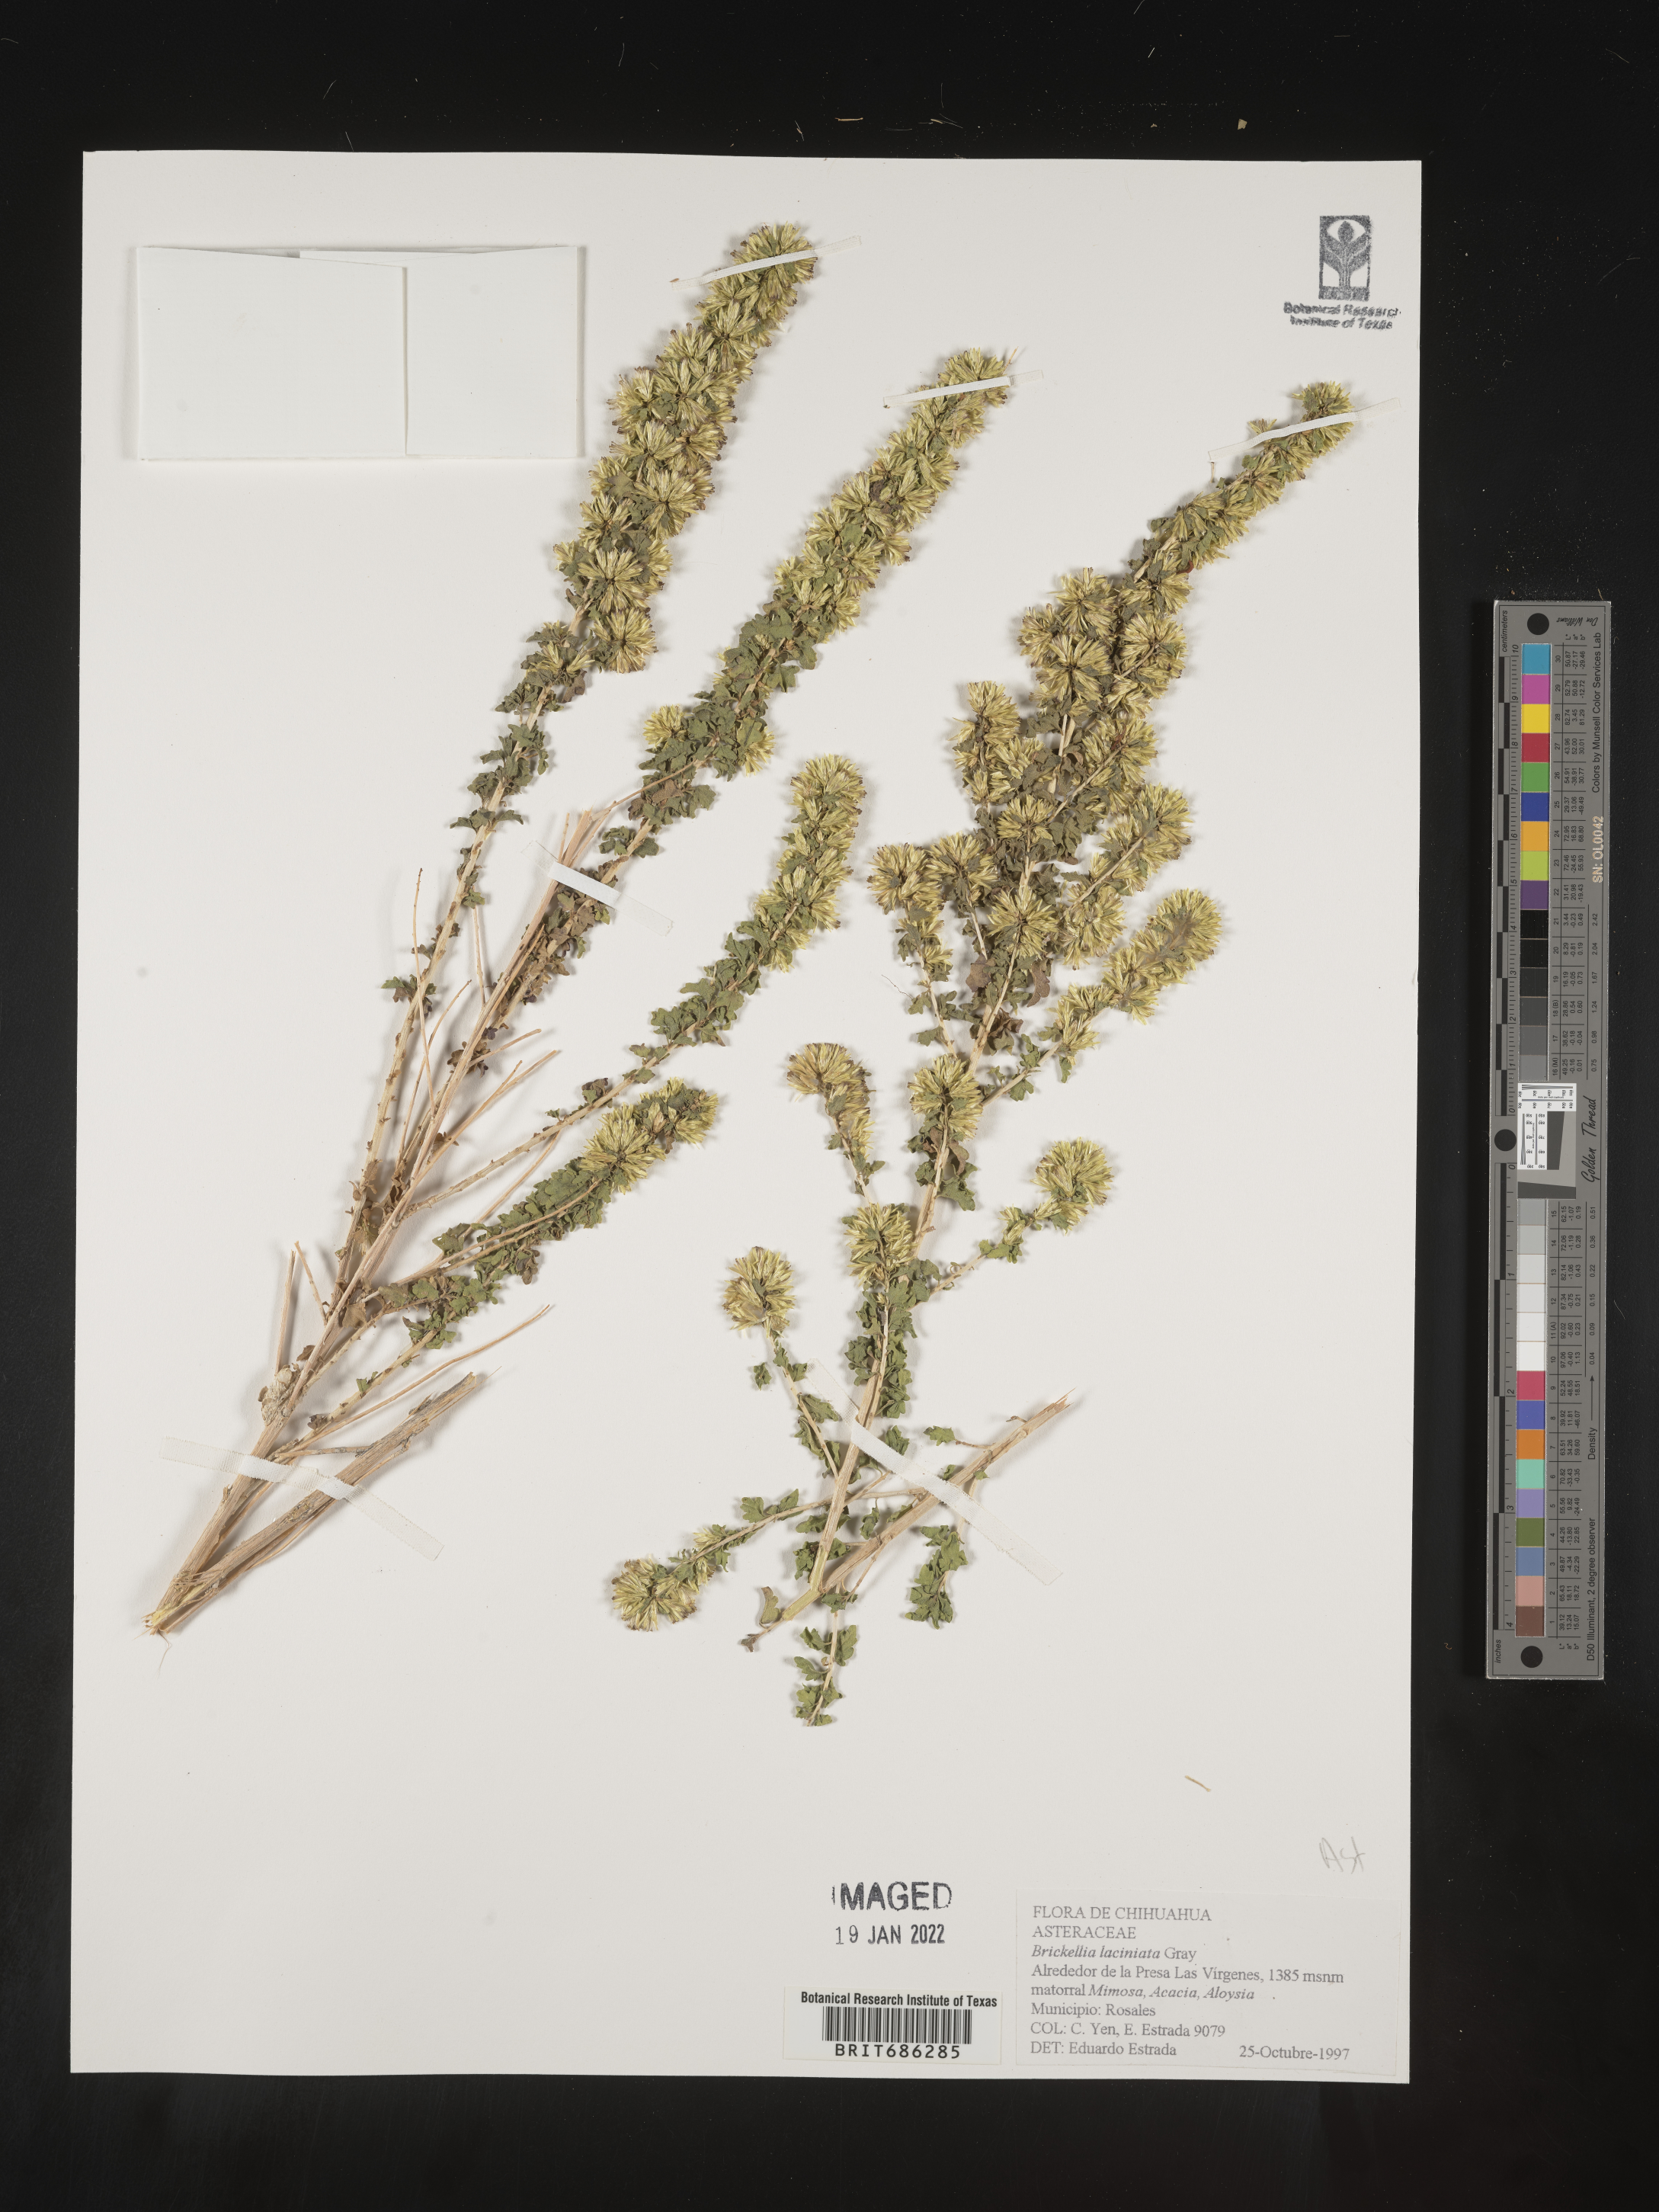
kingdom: Plantae
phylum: Tracheophyta
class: Magnoliopsida
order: Asterales
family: Asteraceae
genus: Brickellia
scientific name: Brickellia
